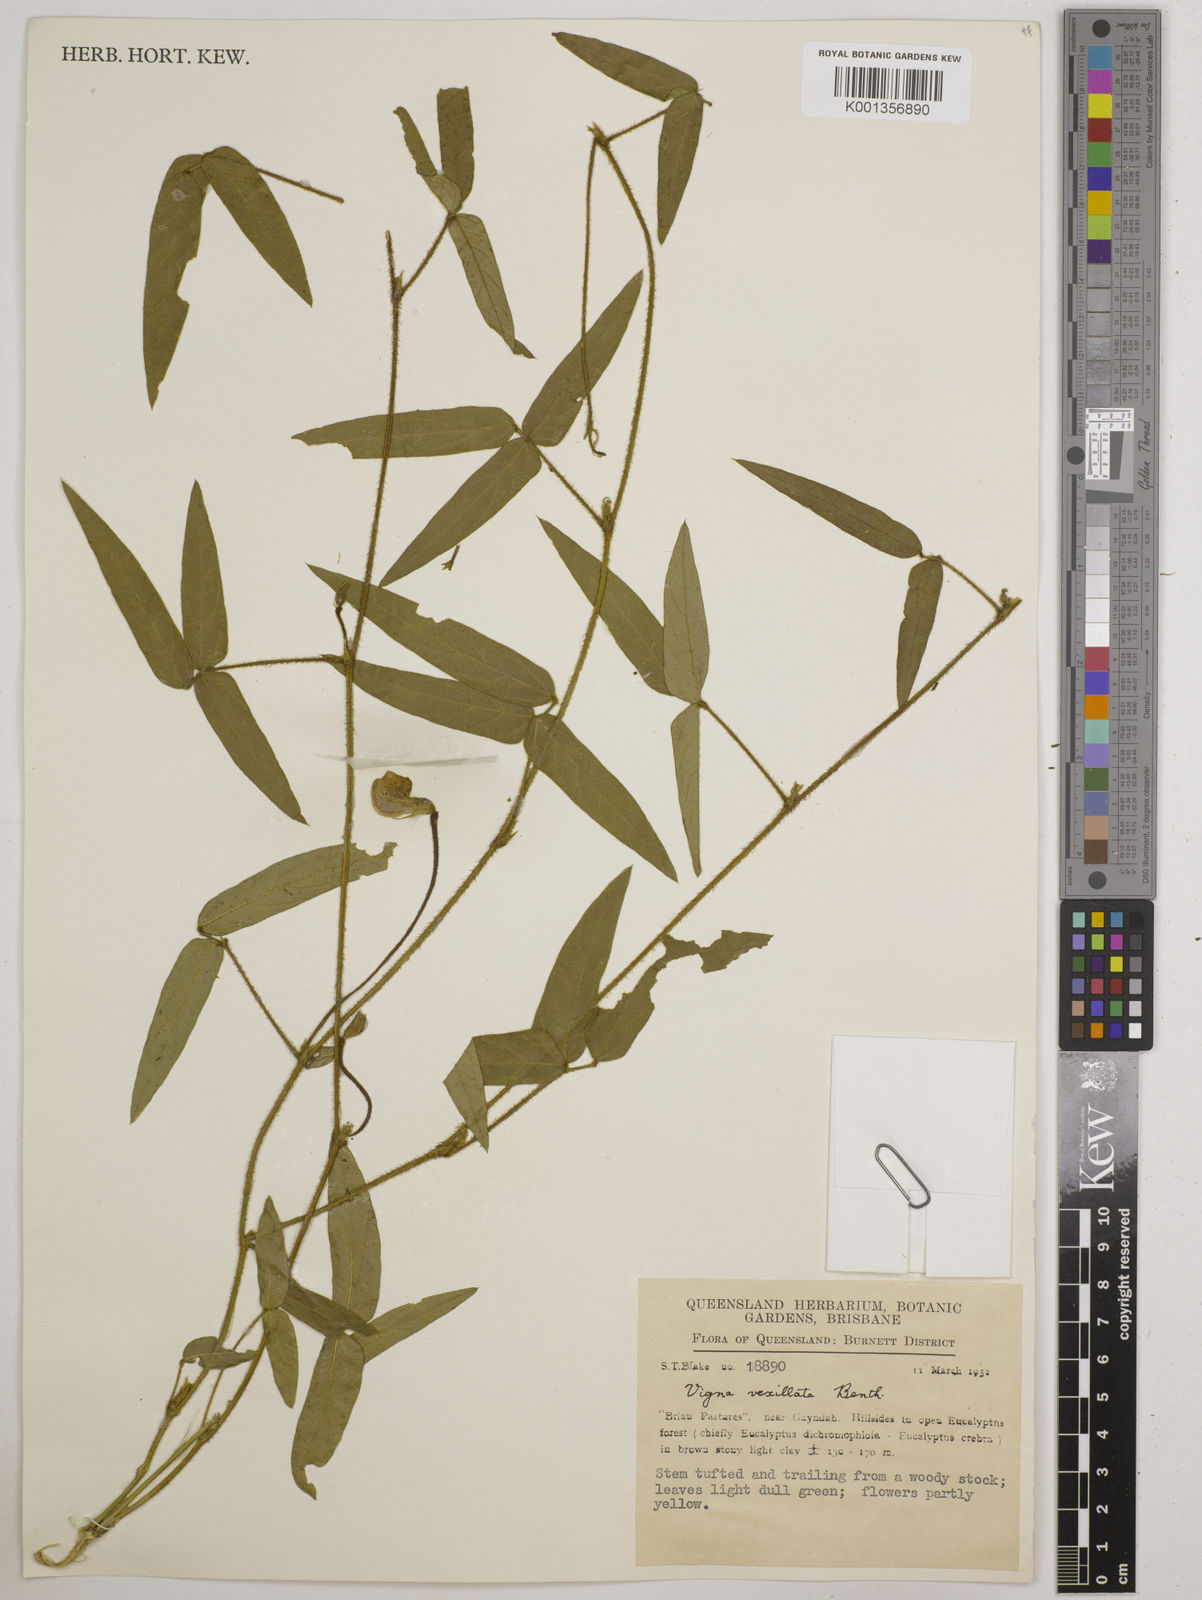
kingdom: Plantae
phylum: Tracheophyta
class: Magnoliopsida
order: Fabales
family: Fabaceae
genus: Vigna
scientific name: Vigna vexillata
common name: Zombi pea
